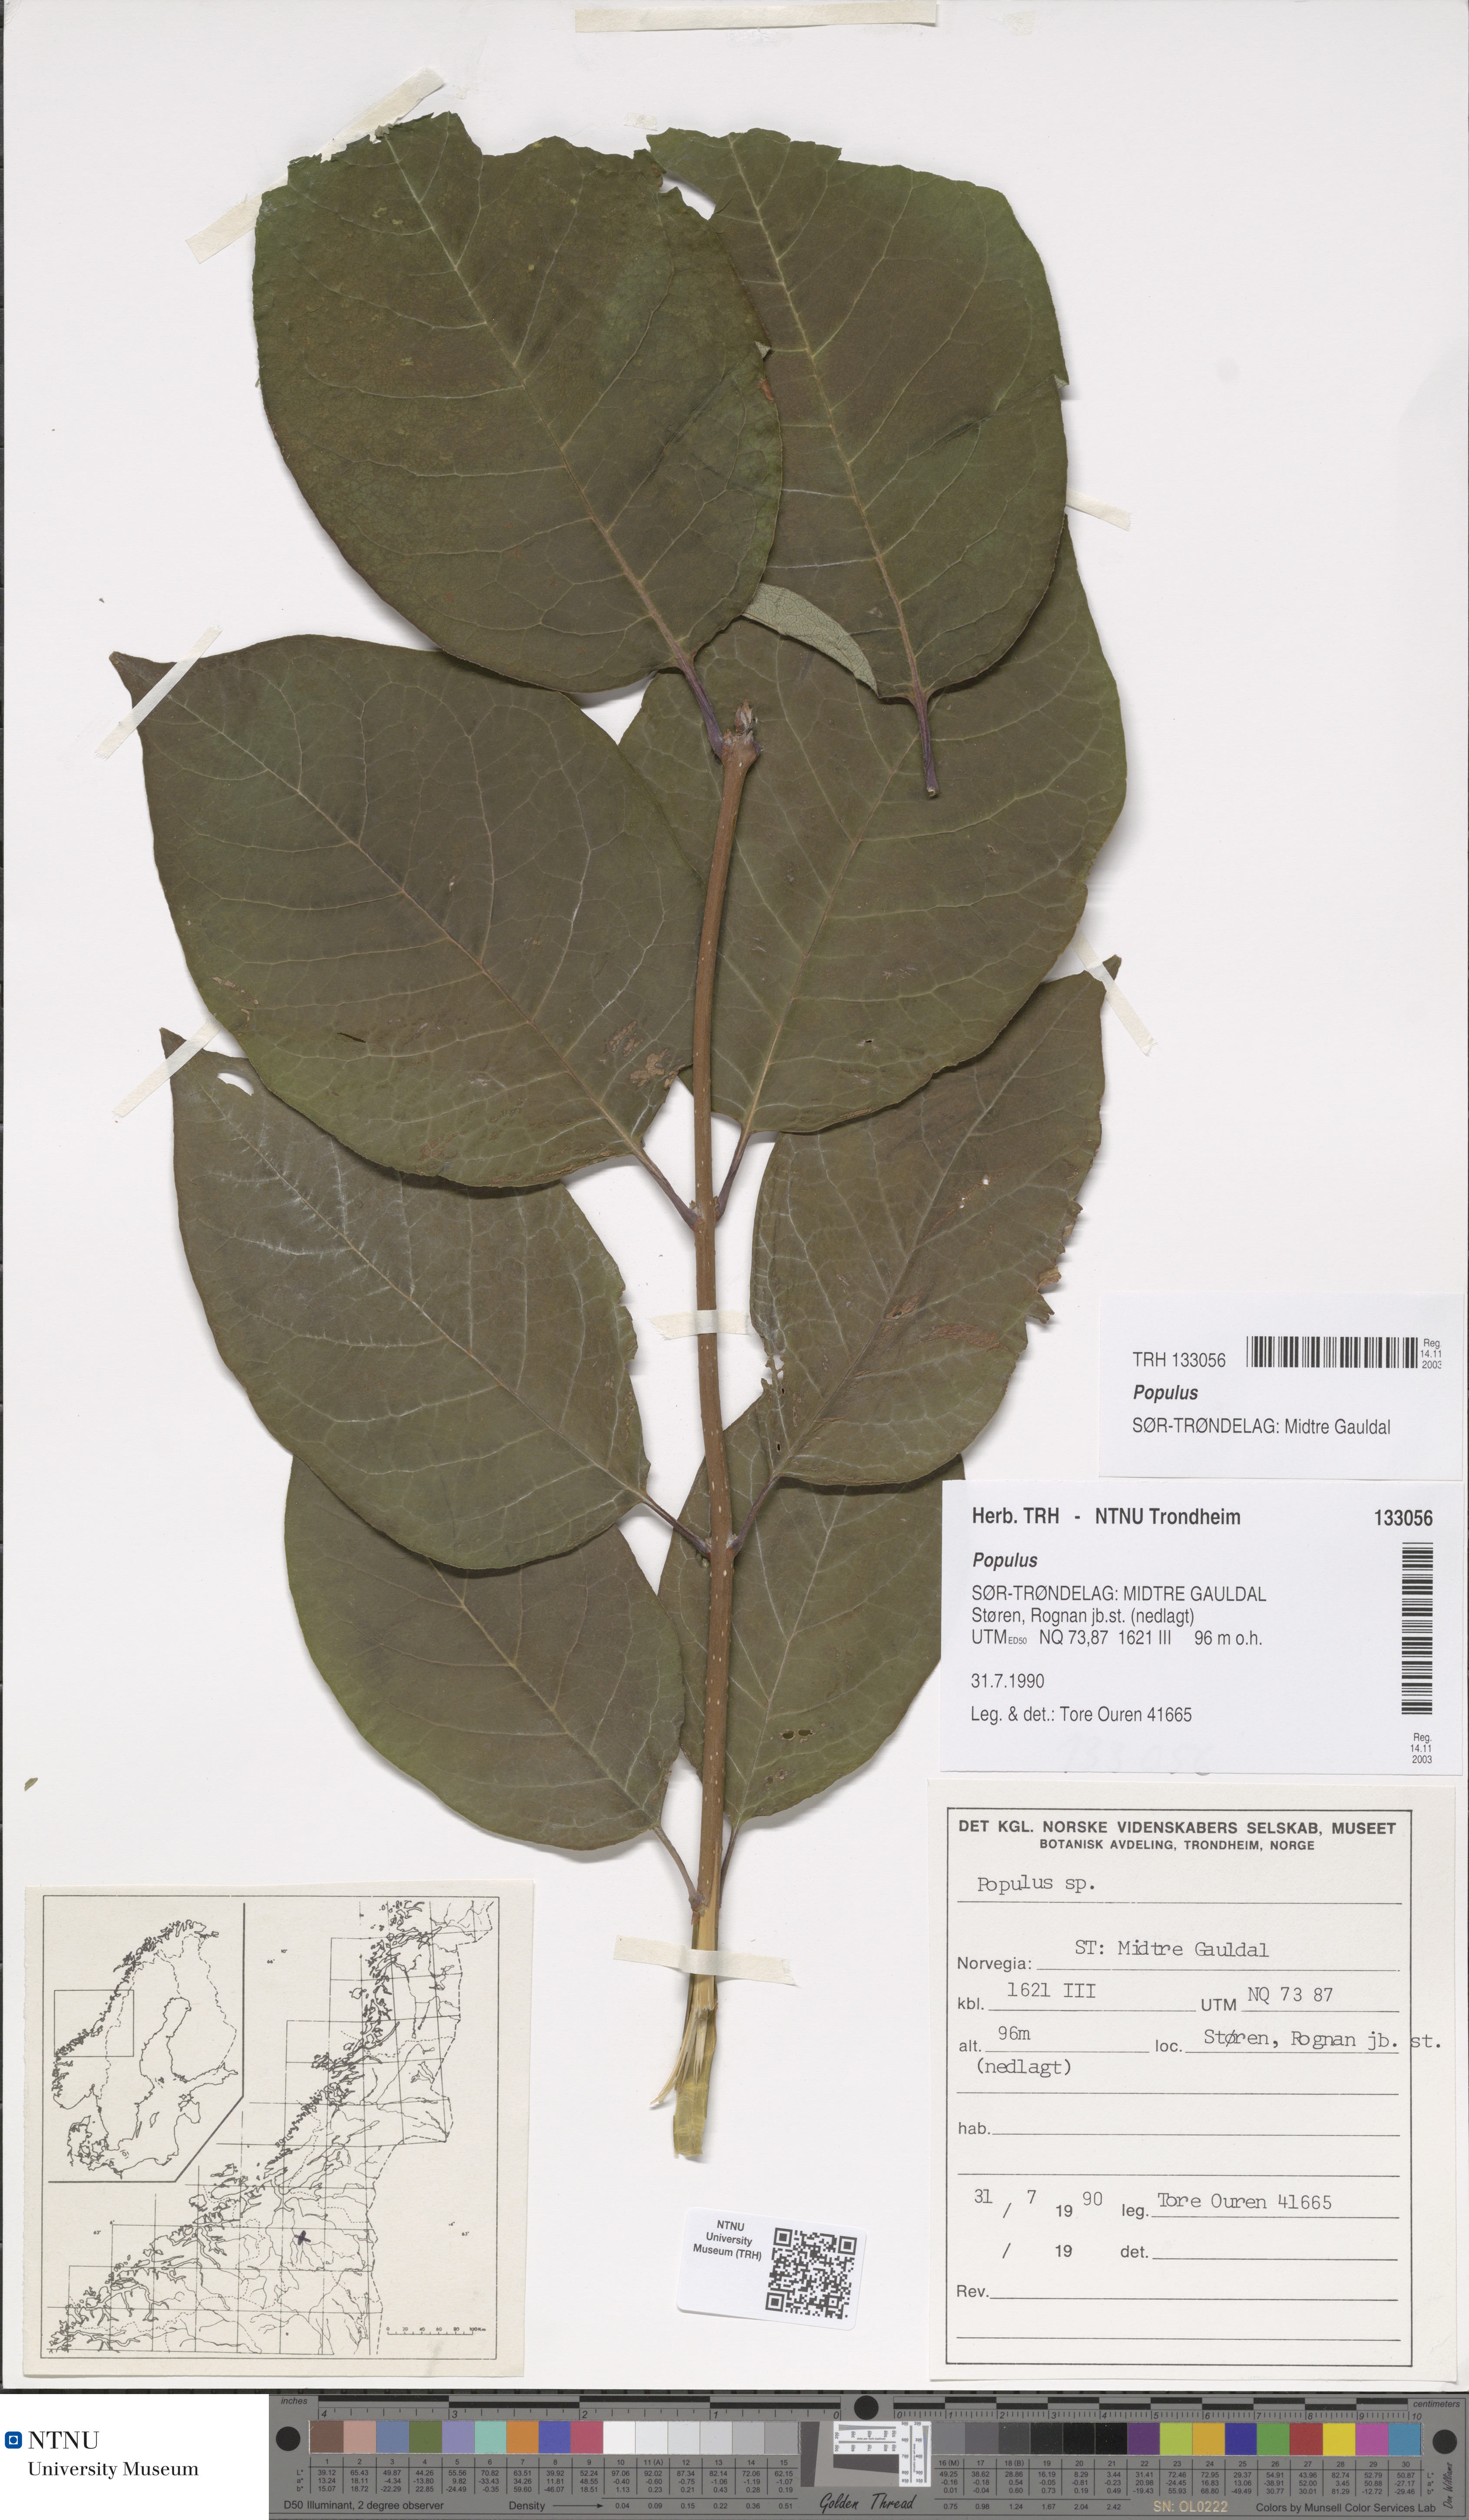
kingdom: Plantae
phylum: Tracheophyta
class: Magnoliopsida
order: Malpighiales
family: Salicaceae
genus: Populus
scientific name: Populus
